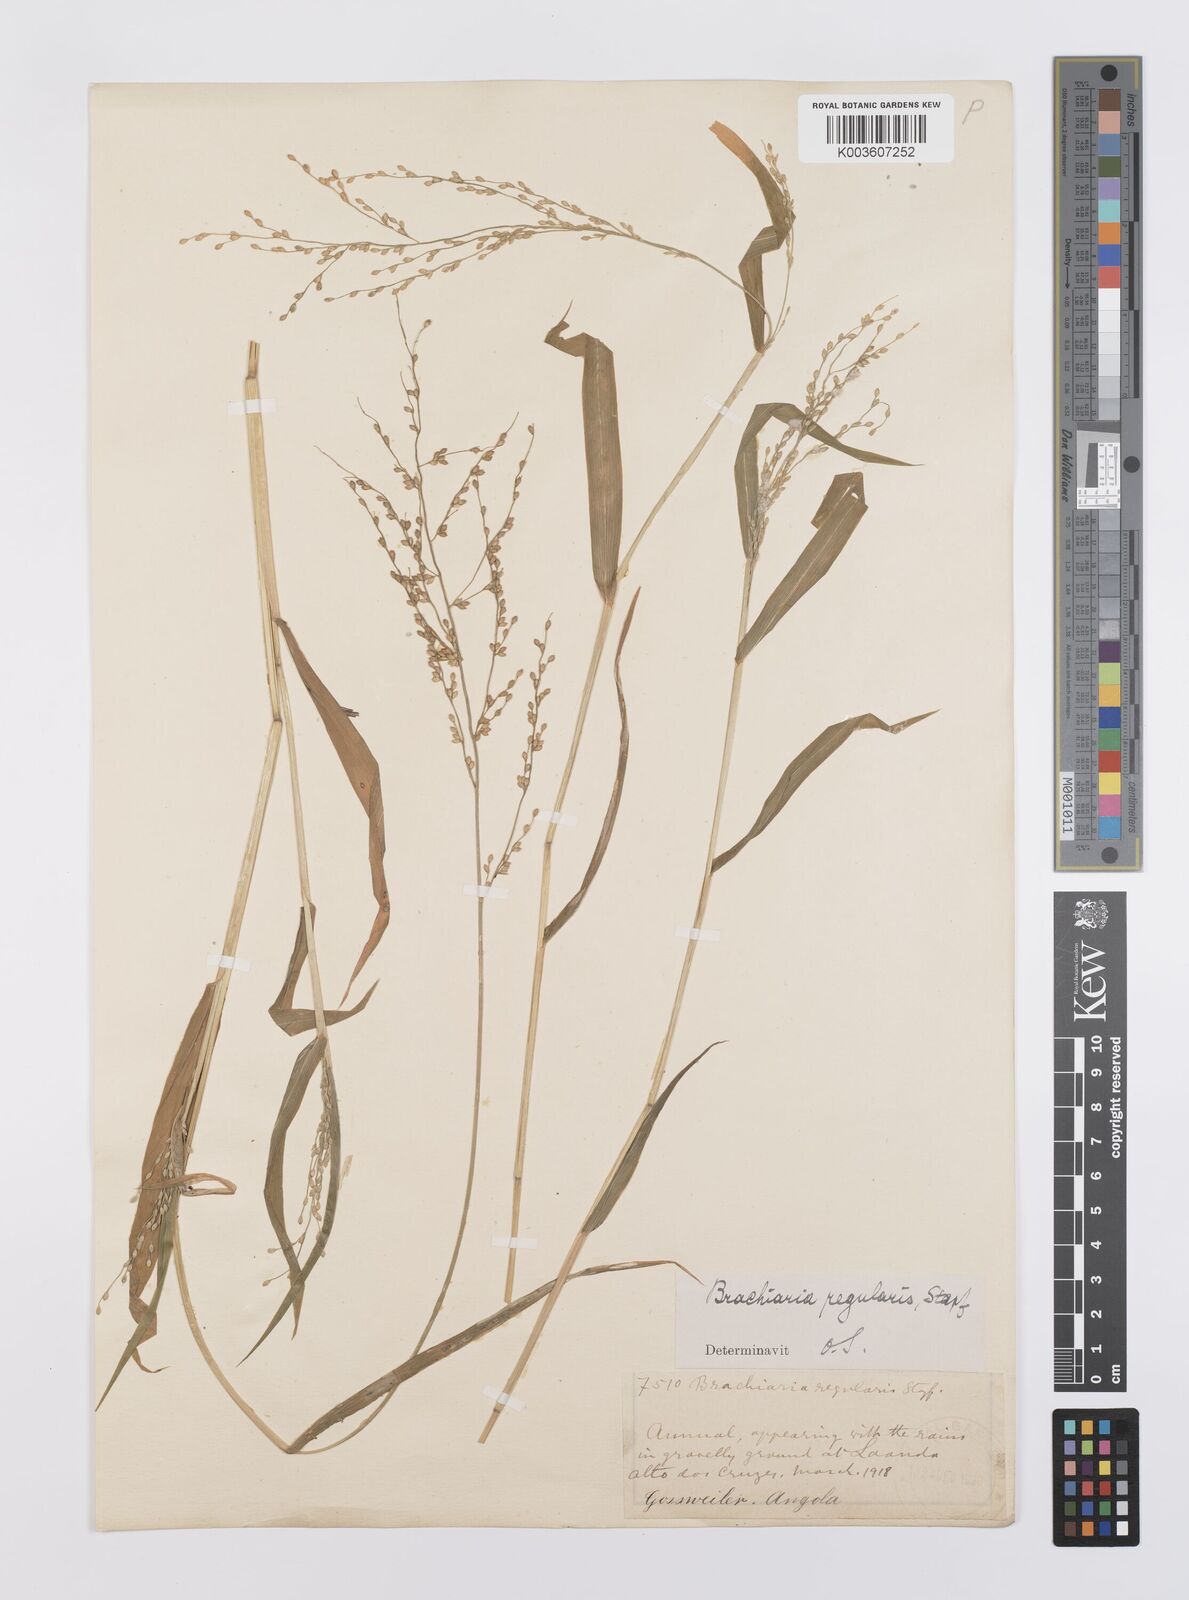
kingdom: Plantae
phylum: Tracheophyta
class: Liliopsida
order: Poales
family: Poaceae
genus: Urochloa
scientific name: Urochloa deflexa
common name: Guinea millet
